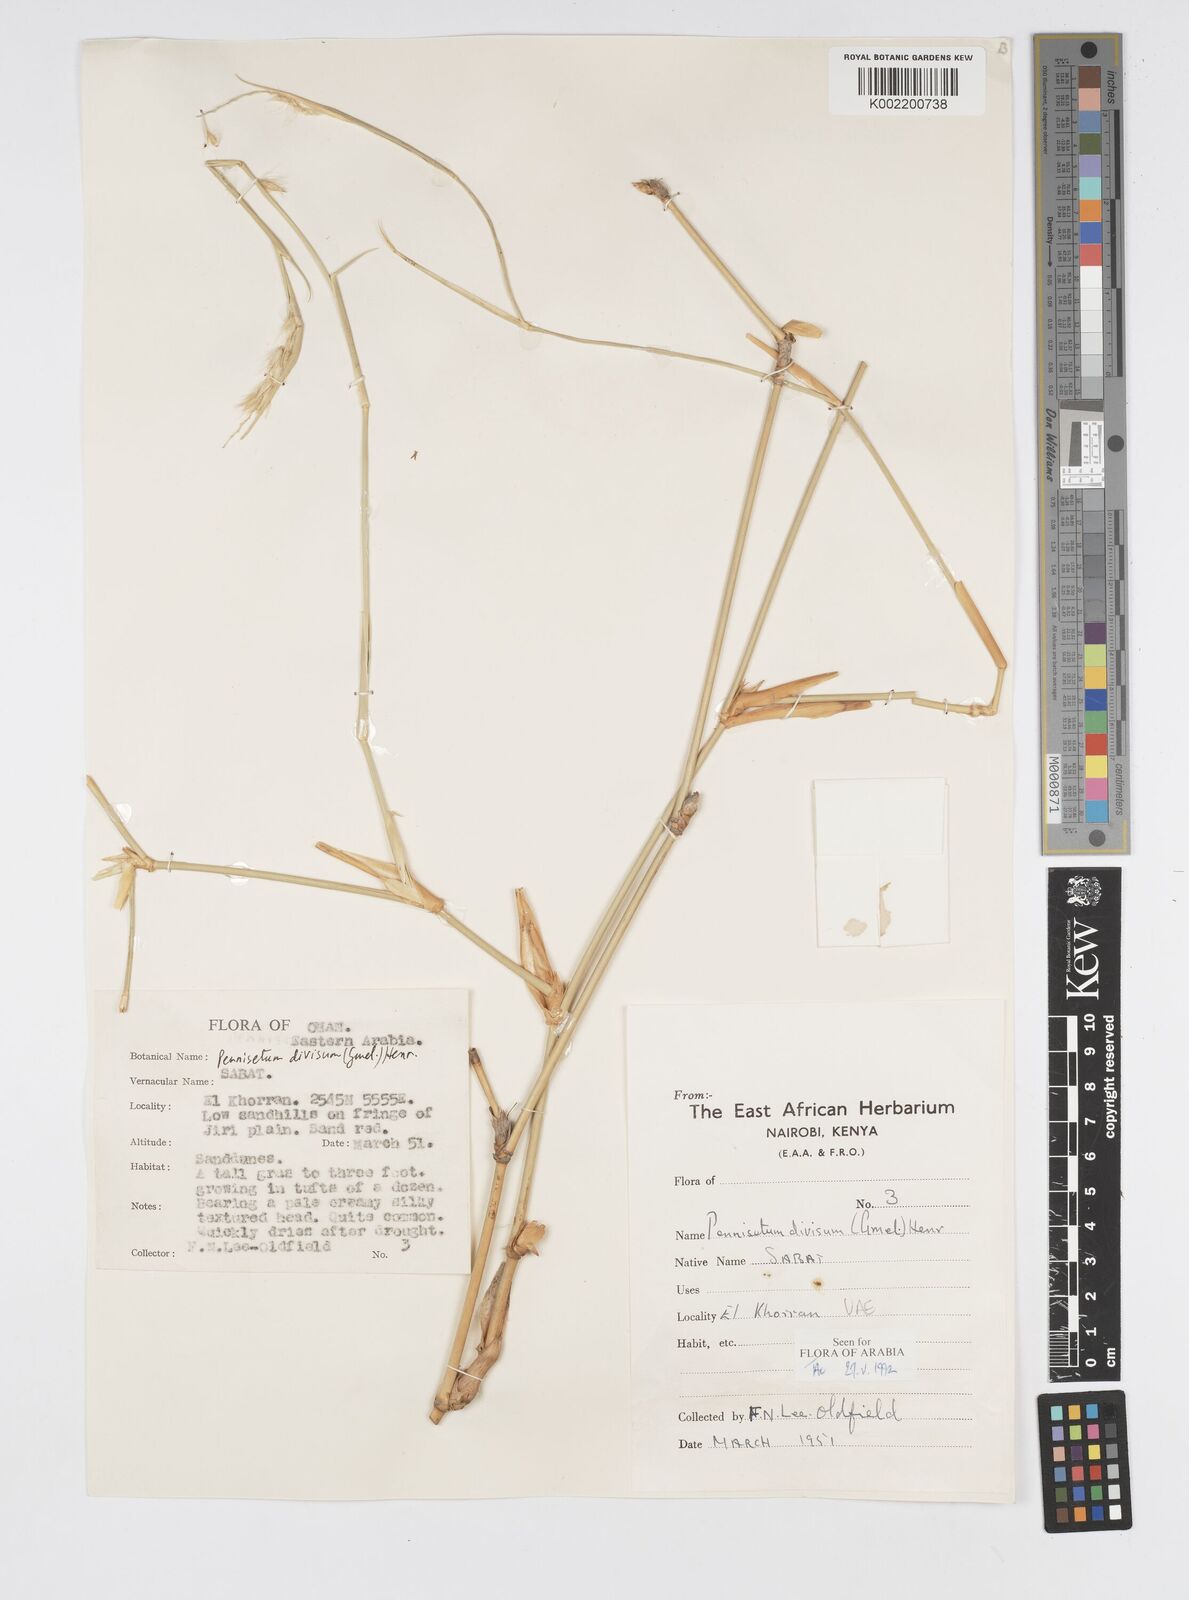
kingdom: Plantae
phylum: Tracheophyta
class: Liliopsida
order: Poales
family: Poaceae
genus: Cenchrus
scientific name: Cenchrus divisus
